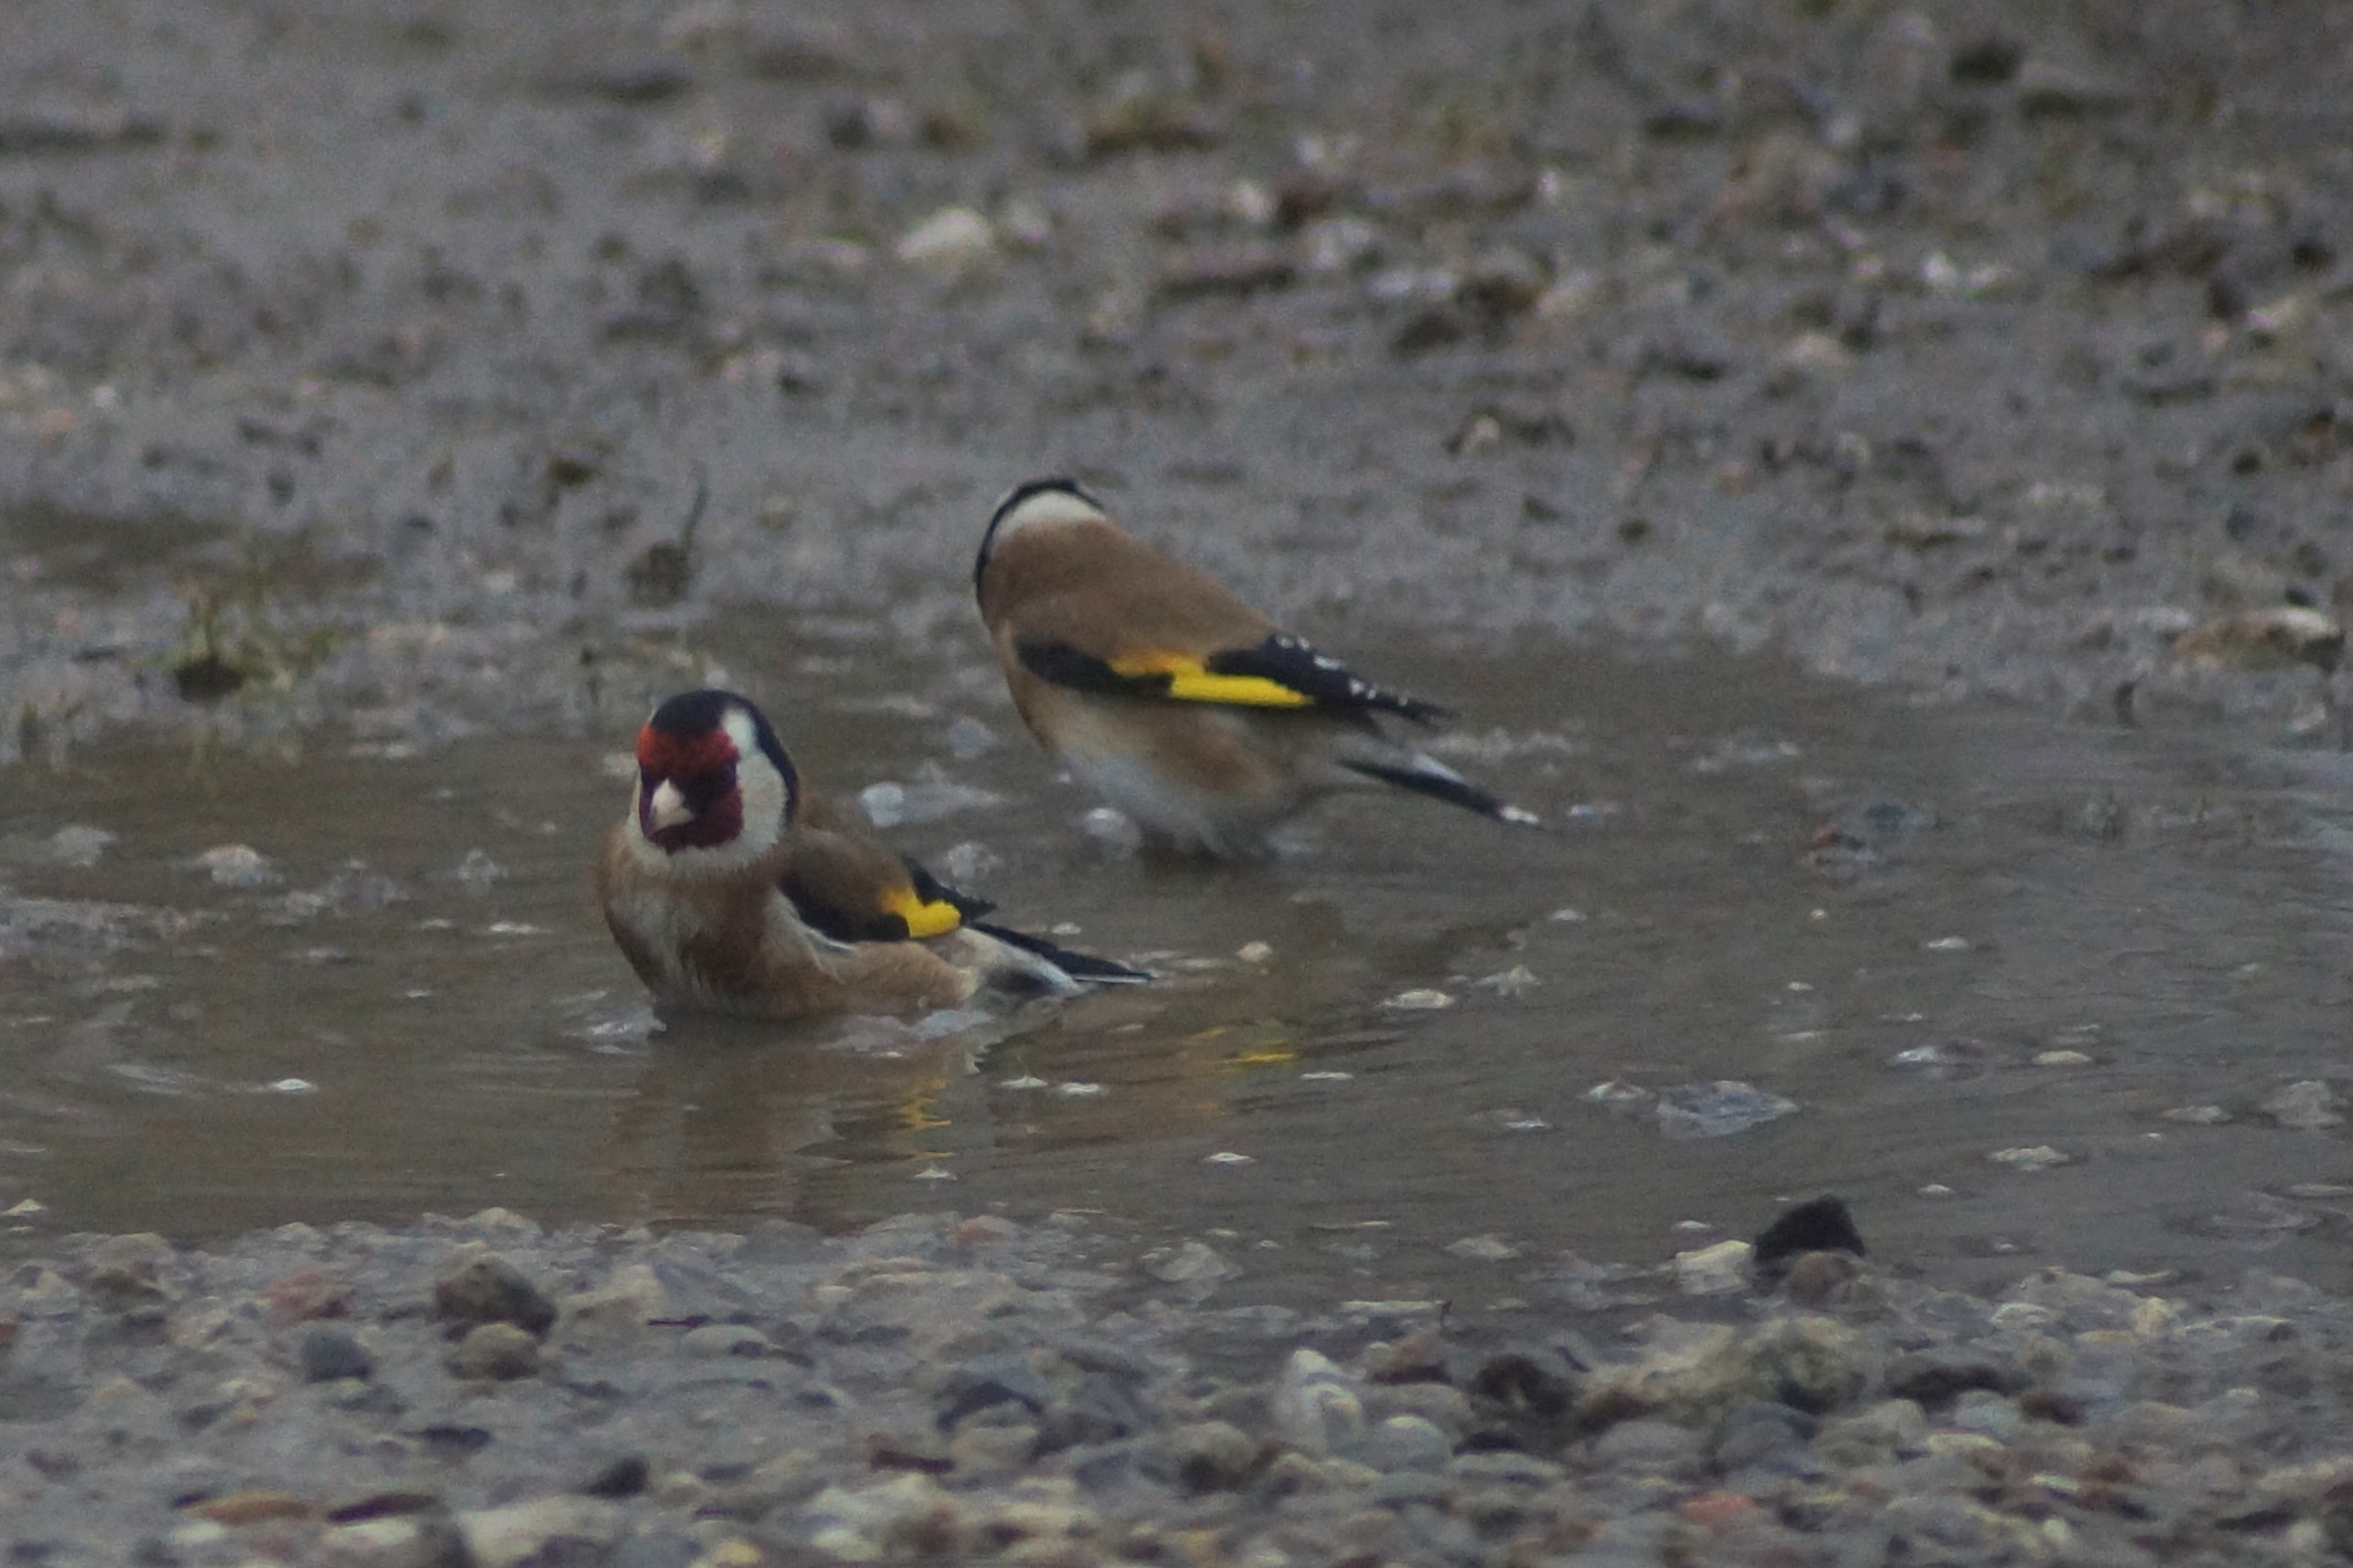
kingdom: Animalia
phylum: Chordata
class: Aves
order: Passeriformes
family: Fringillidae
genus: Carduelis
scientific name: Carduelis carduelis
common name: Stillits
